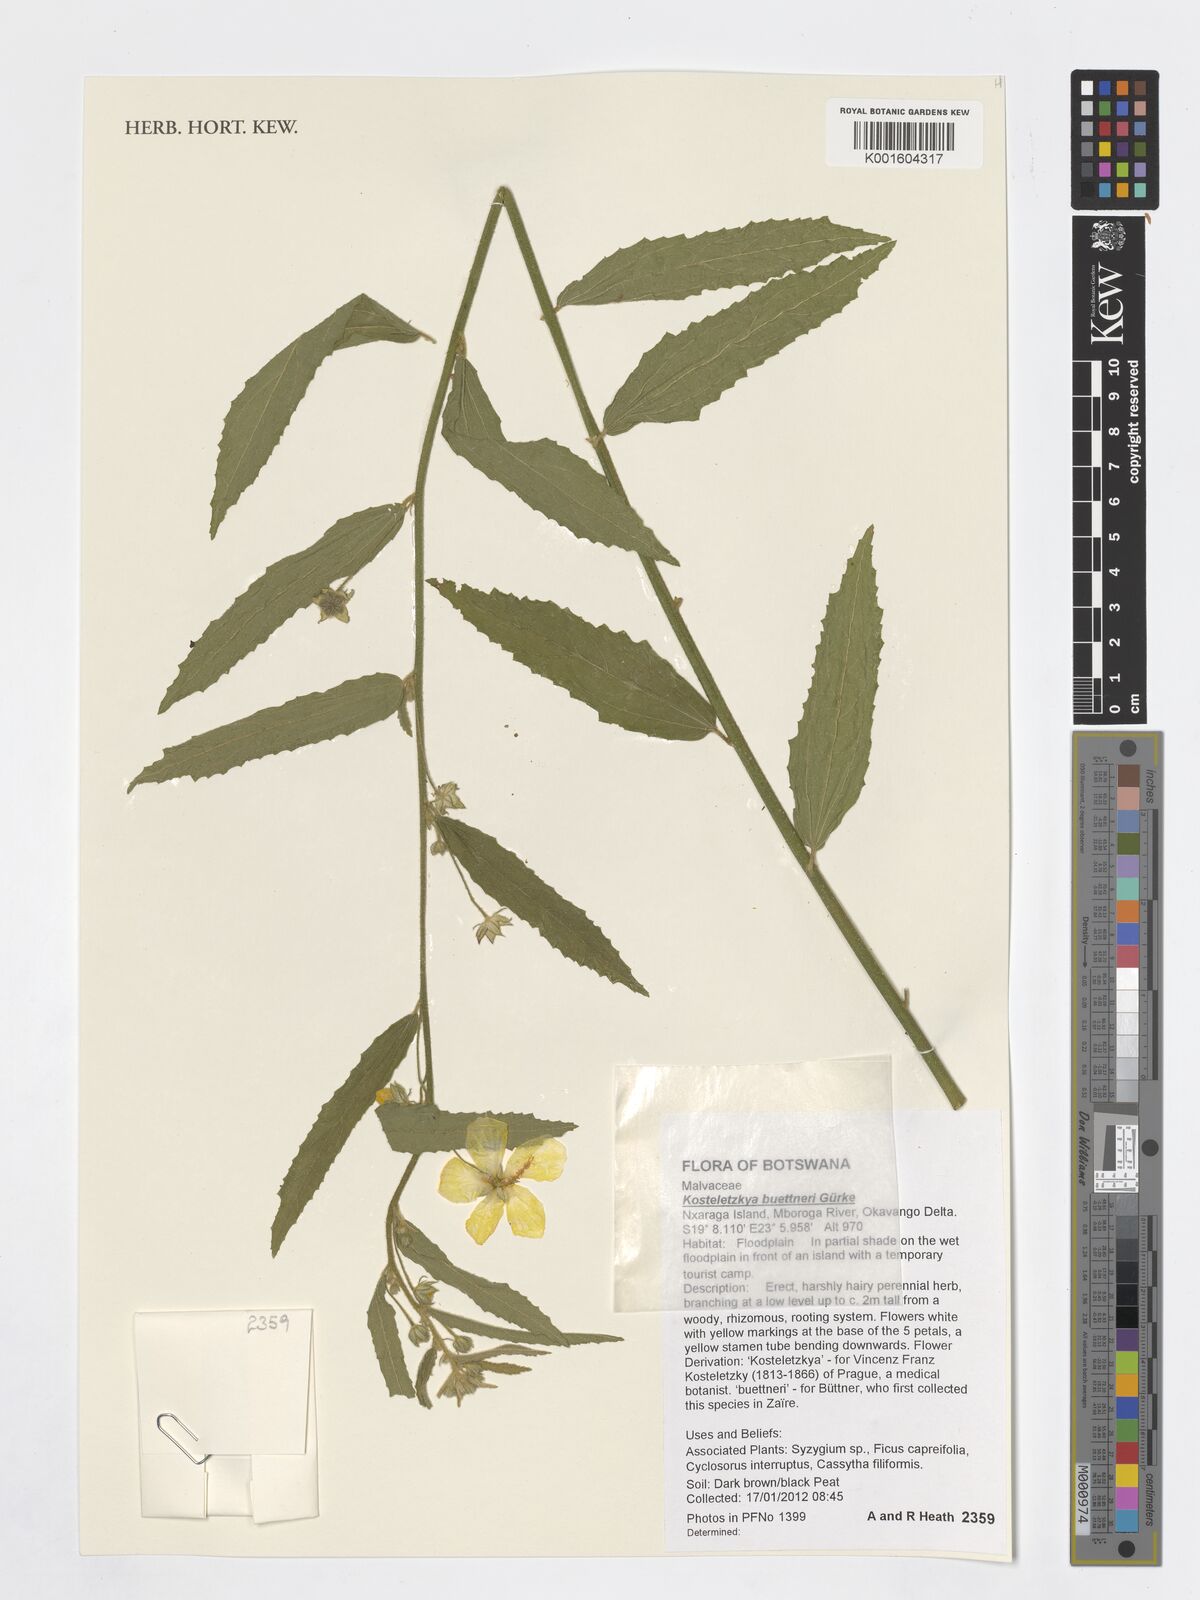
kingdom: Plantae
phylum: Tracheophyta
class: Magnoliopsida
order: Malvales
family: Malvaceae
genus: Kosteletzkya
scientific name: Kosteletzkya buettneri
